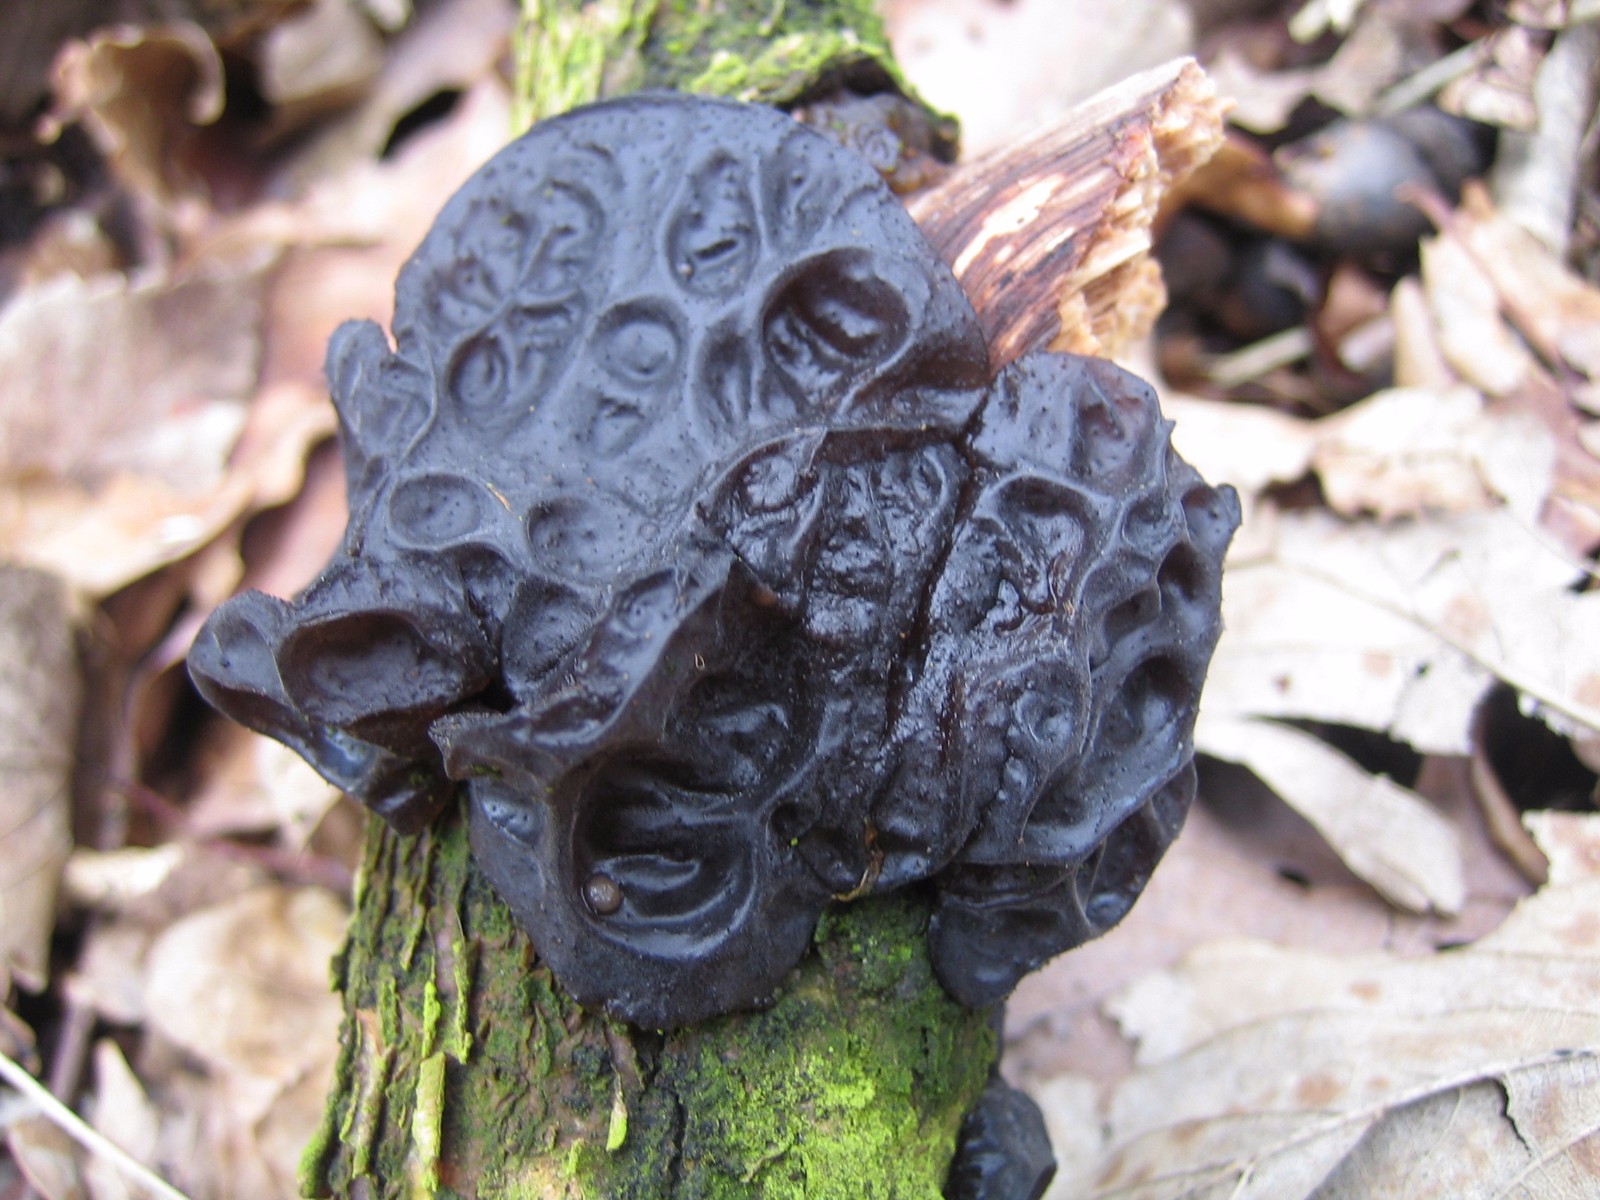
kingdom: Fungi
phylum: Basidiomycota
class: Agaricomycetes
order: Auriculariales
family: Auriculariaceae
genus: Exidia
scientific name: Exidia glandulosa
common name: ege-bævretop
